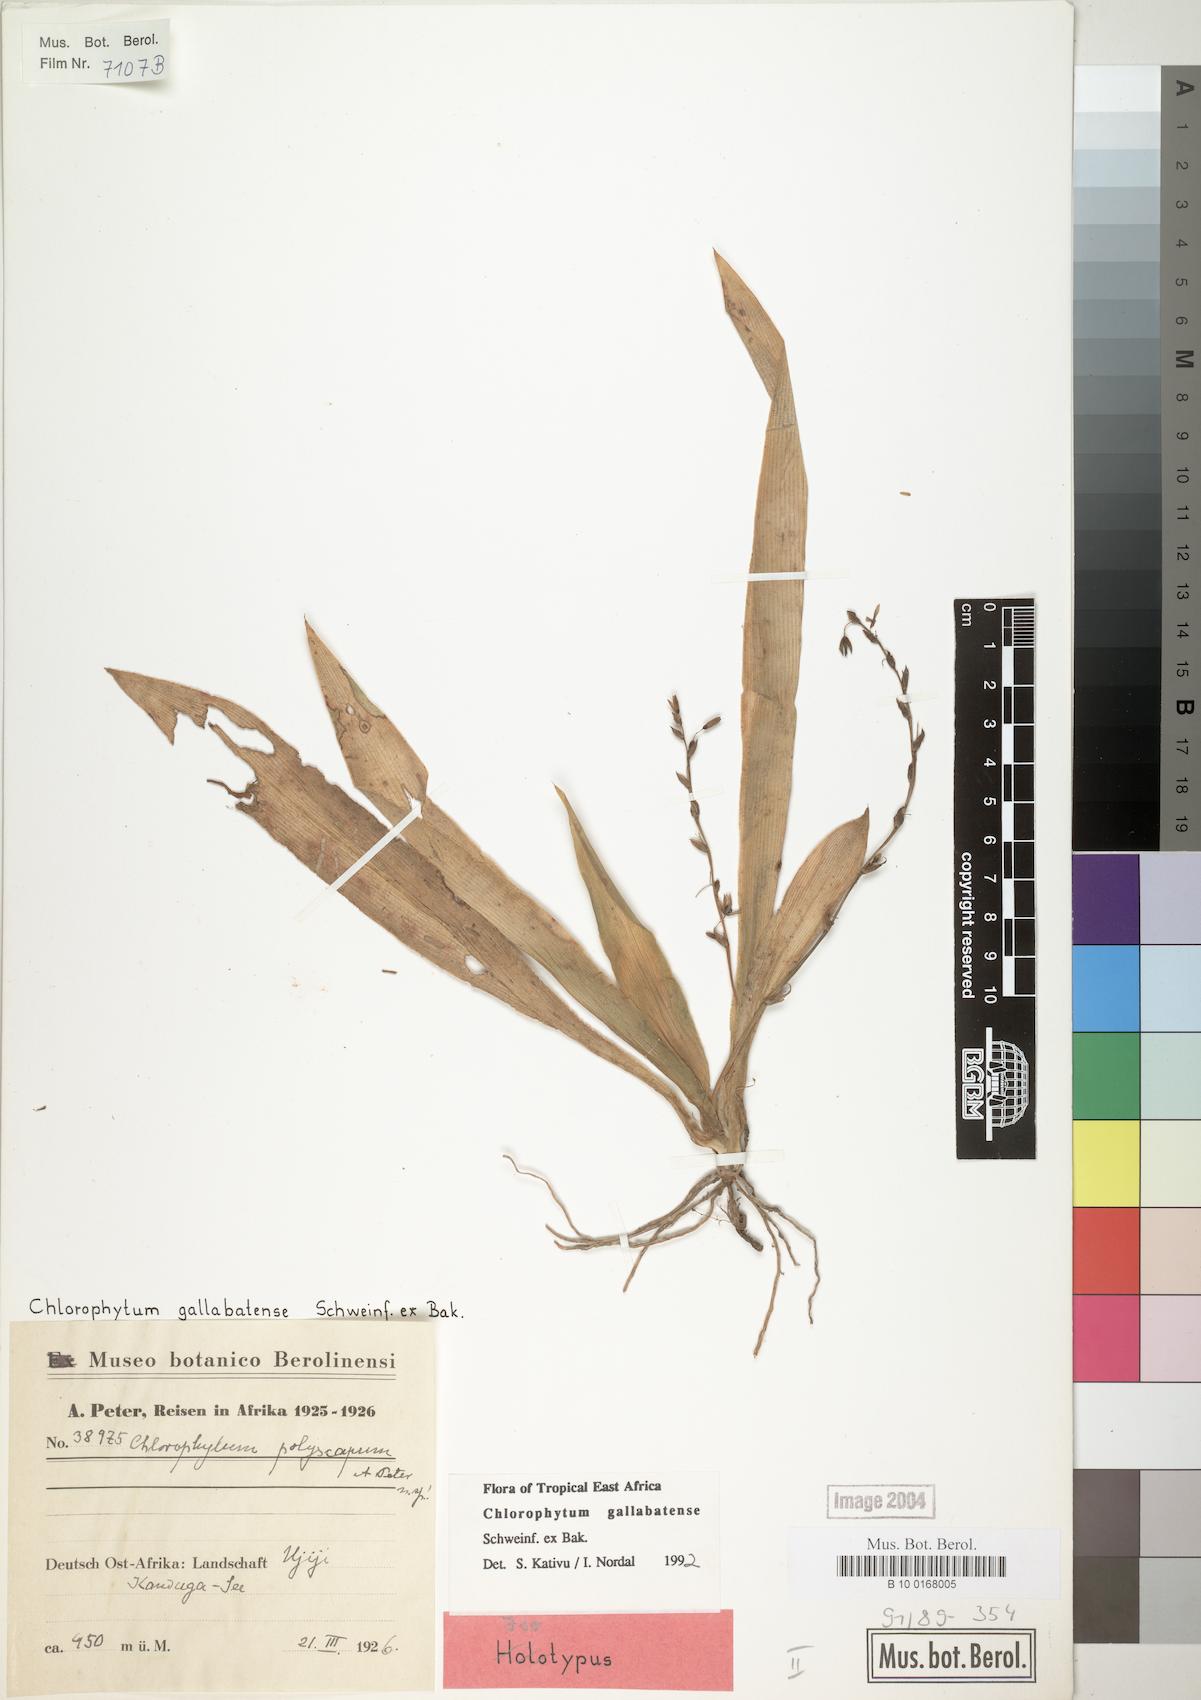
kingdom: Plantae
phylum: Tracheophyta
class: Liliopsida
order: Asparagales
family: Asparagaceae
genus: Chlorophytum
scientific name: Chlorophytum gallabatense
